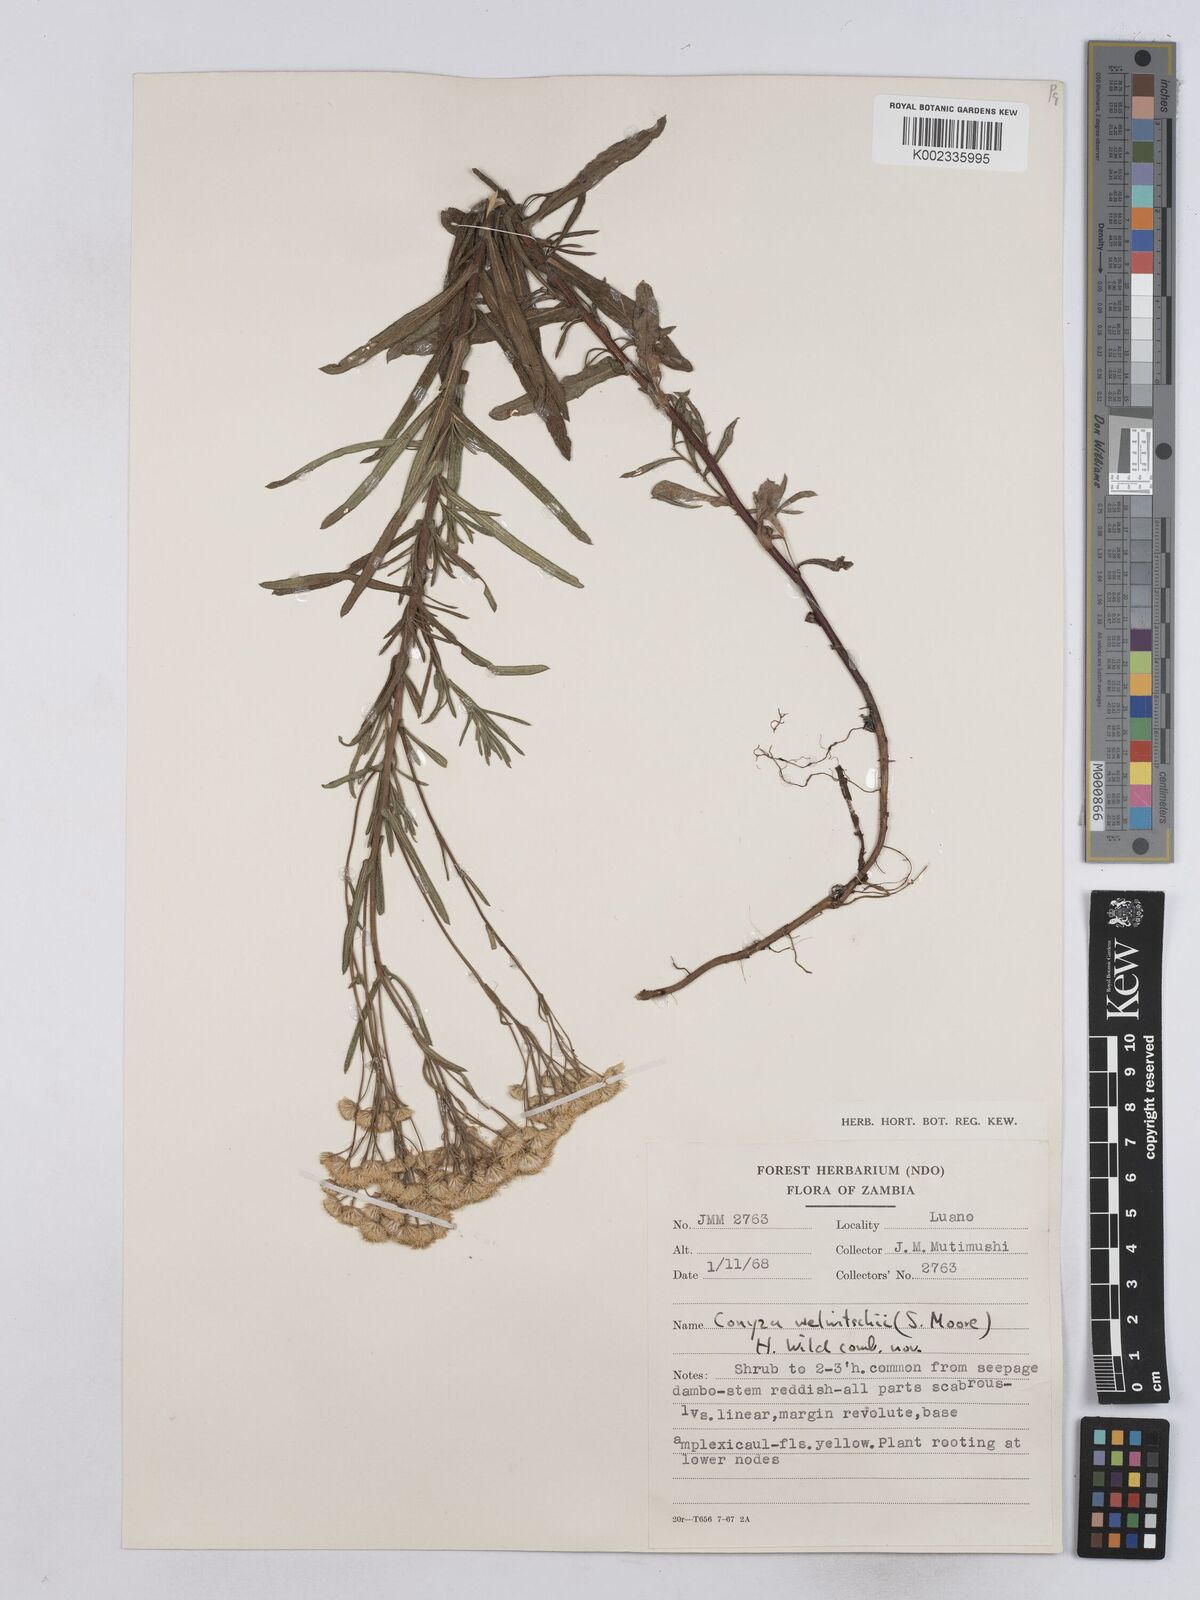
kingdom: Plantae
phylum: Tracheophyta
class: Magnoliopsida
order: Asterales
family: Asteraceae
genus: Nidorella
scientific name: Nidorella welwitschii
